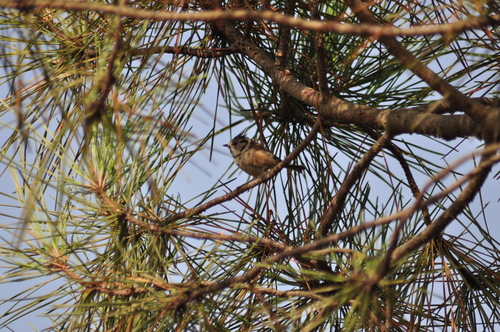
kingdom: Animalia
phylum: Chordata
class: Aves
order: Passeriformes
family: Paridae
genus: Lophophanes
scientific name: Lophophanes cristatus
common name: European crested tit
